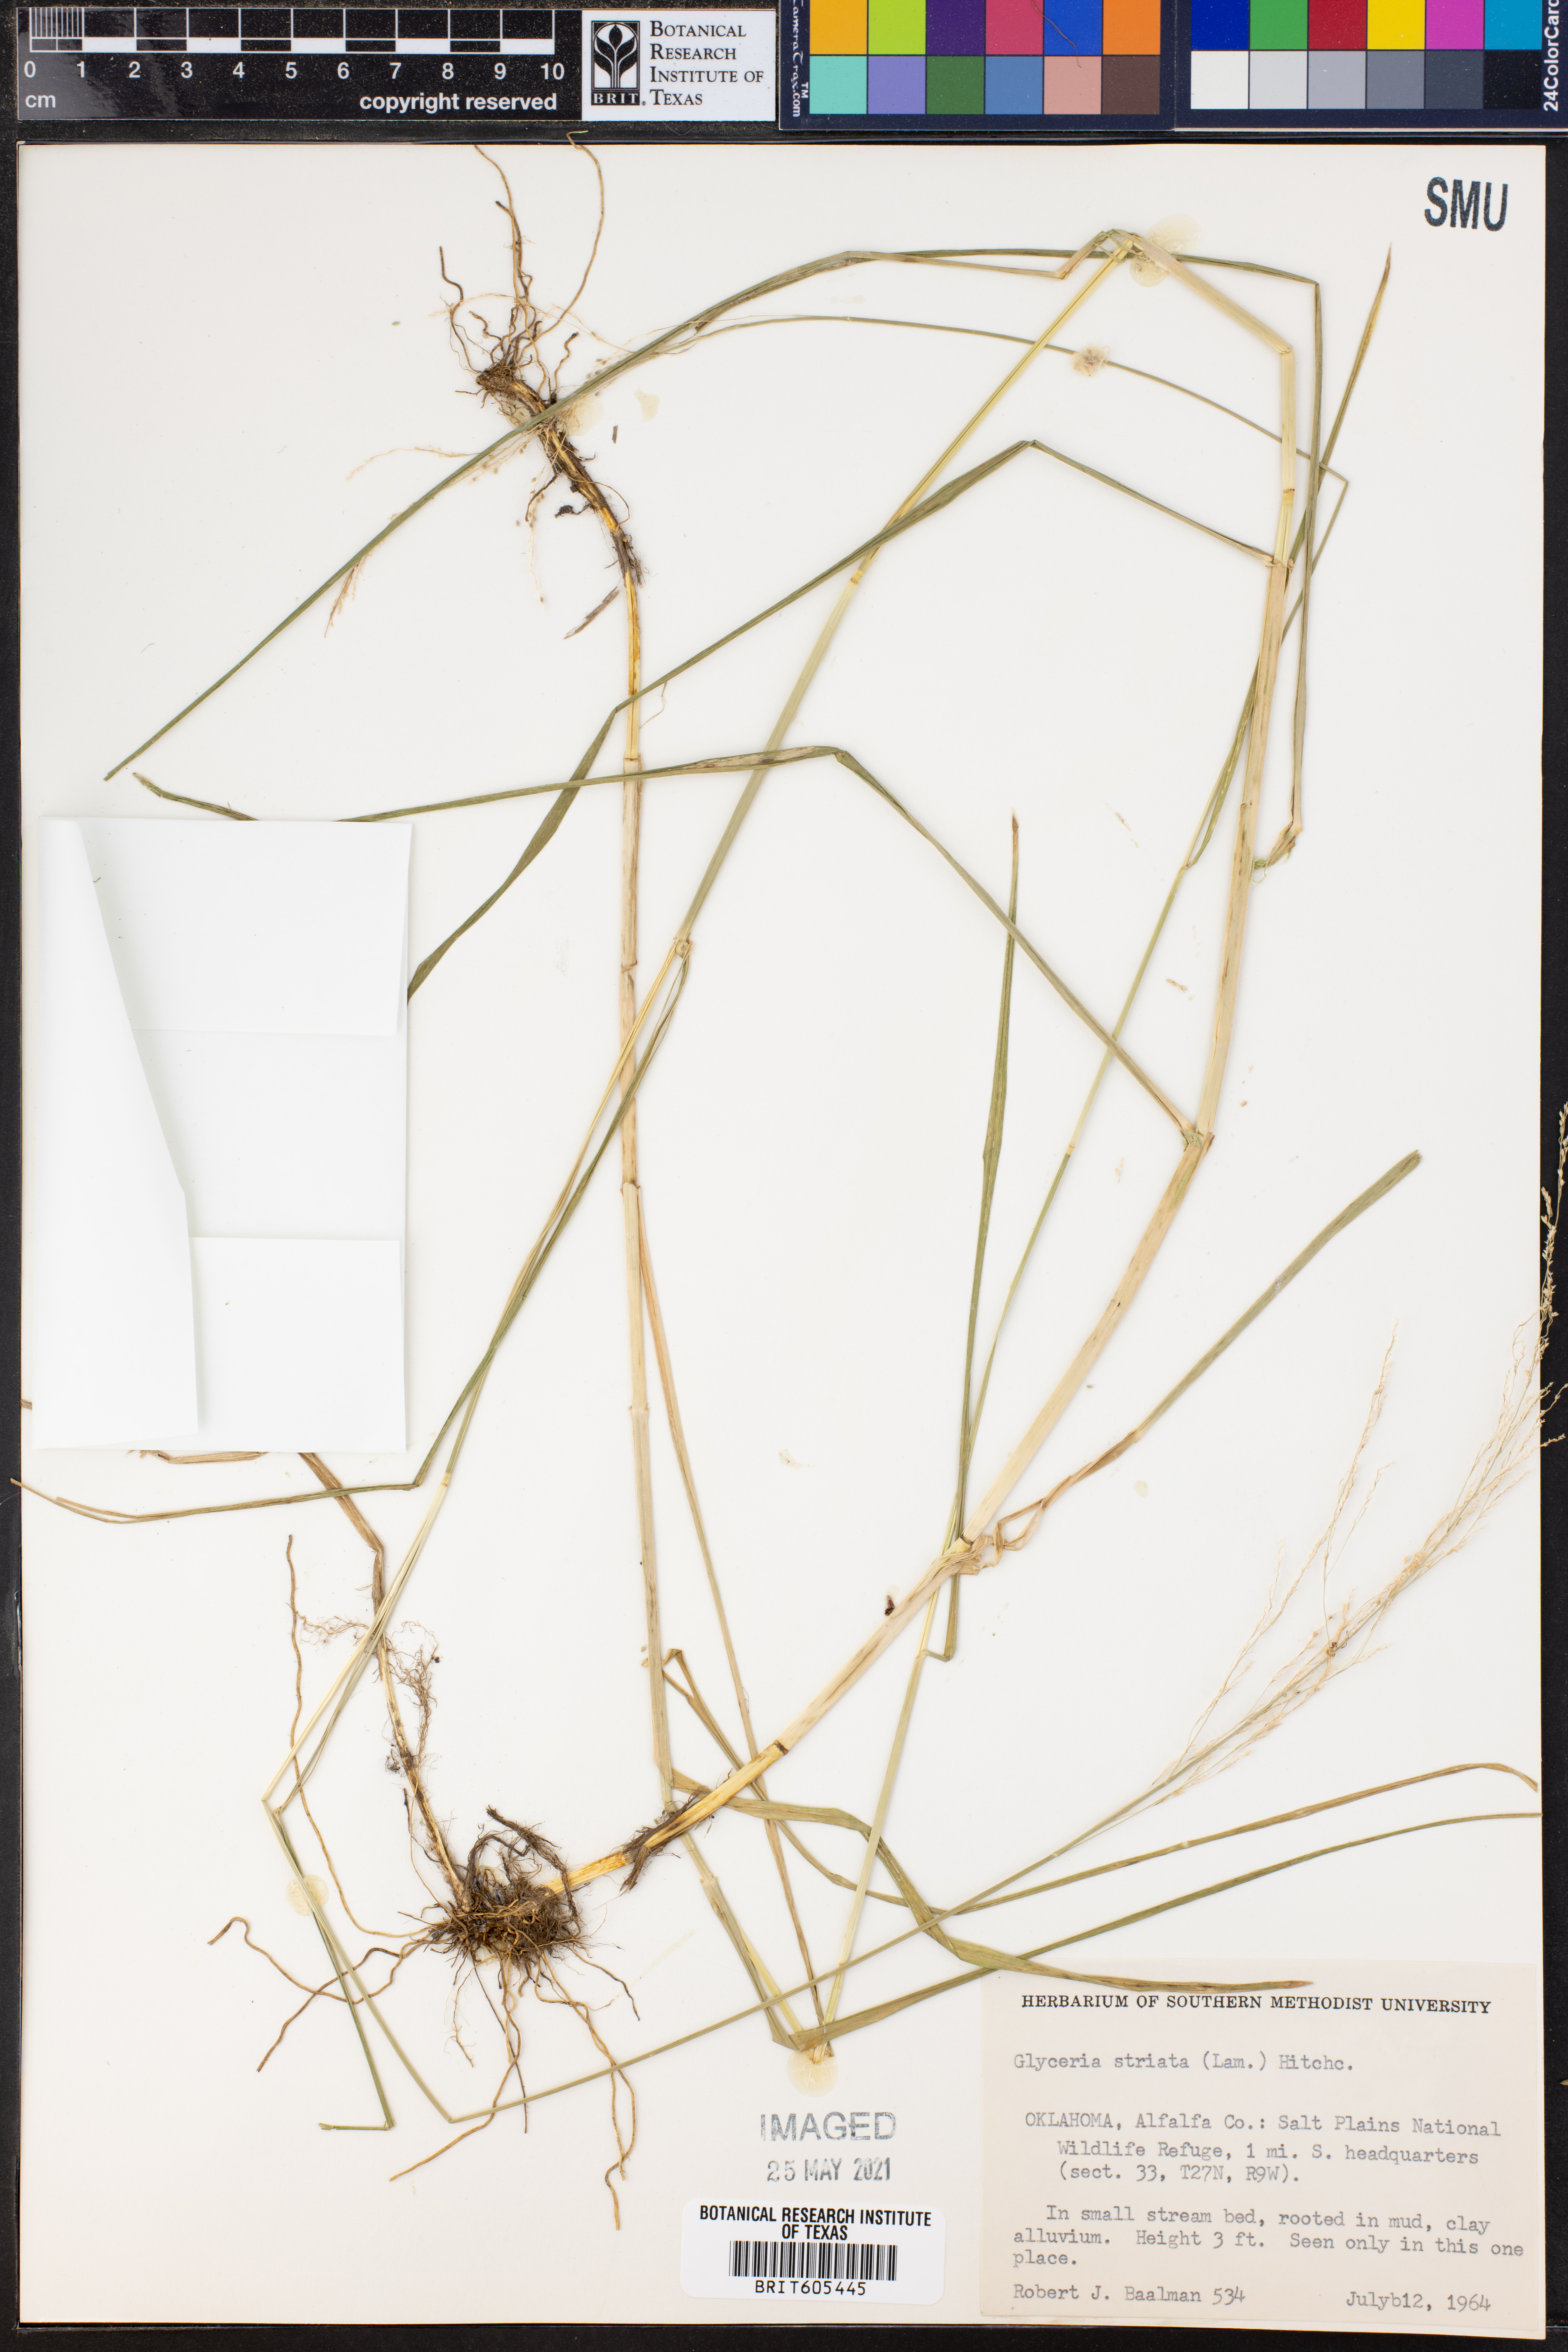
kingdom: Plantae
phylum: Tracheophyta
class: Liliopsida
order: Poales
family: Poaceae
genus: Glyceria
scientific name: Glyceria striata
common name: Fowl manna grass
